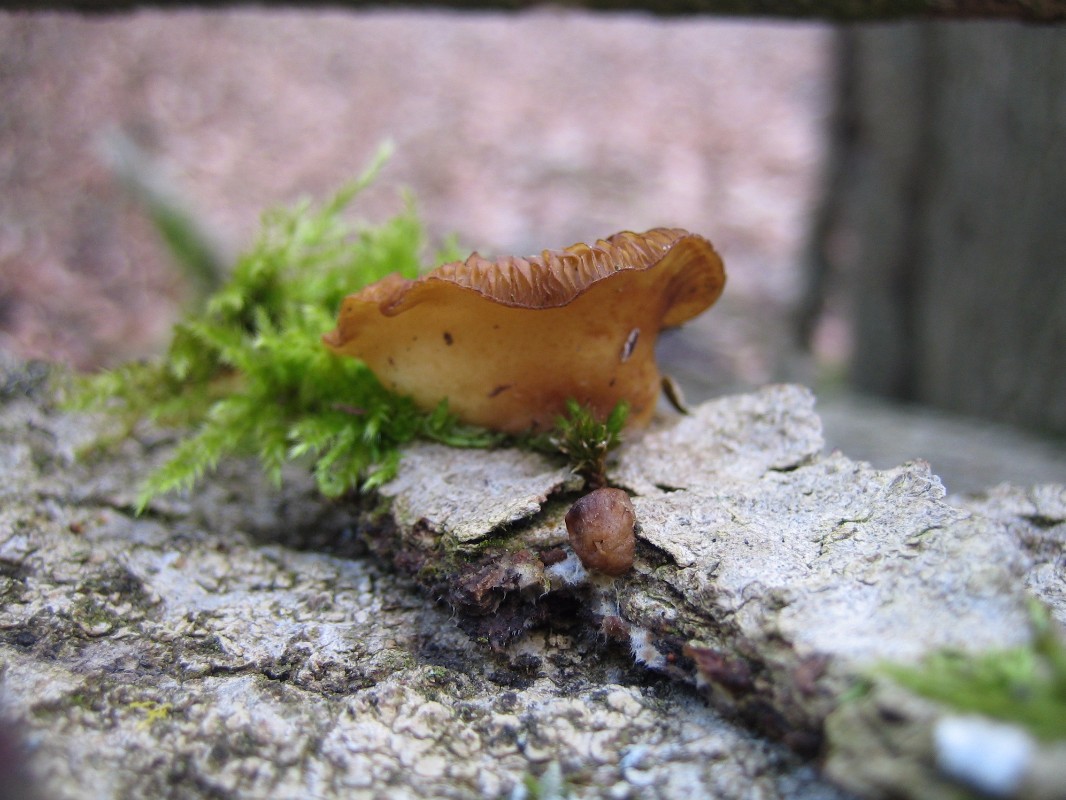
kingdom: Fungi
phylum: Basidiomycota
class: Agaricomycetes
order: Agaricales
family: Crepidotaceae
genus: Crepidotus
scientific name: Crepidotus
